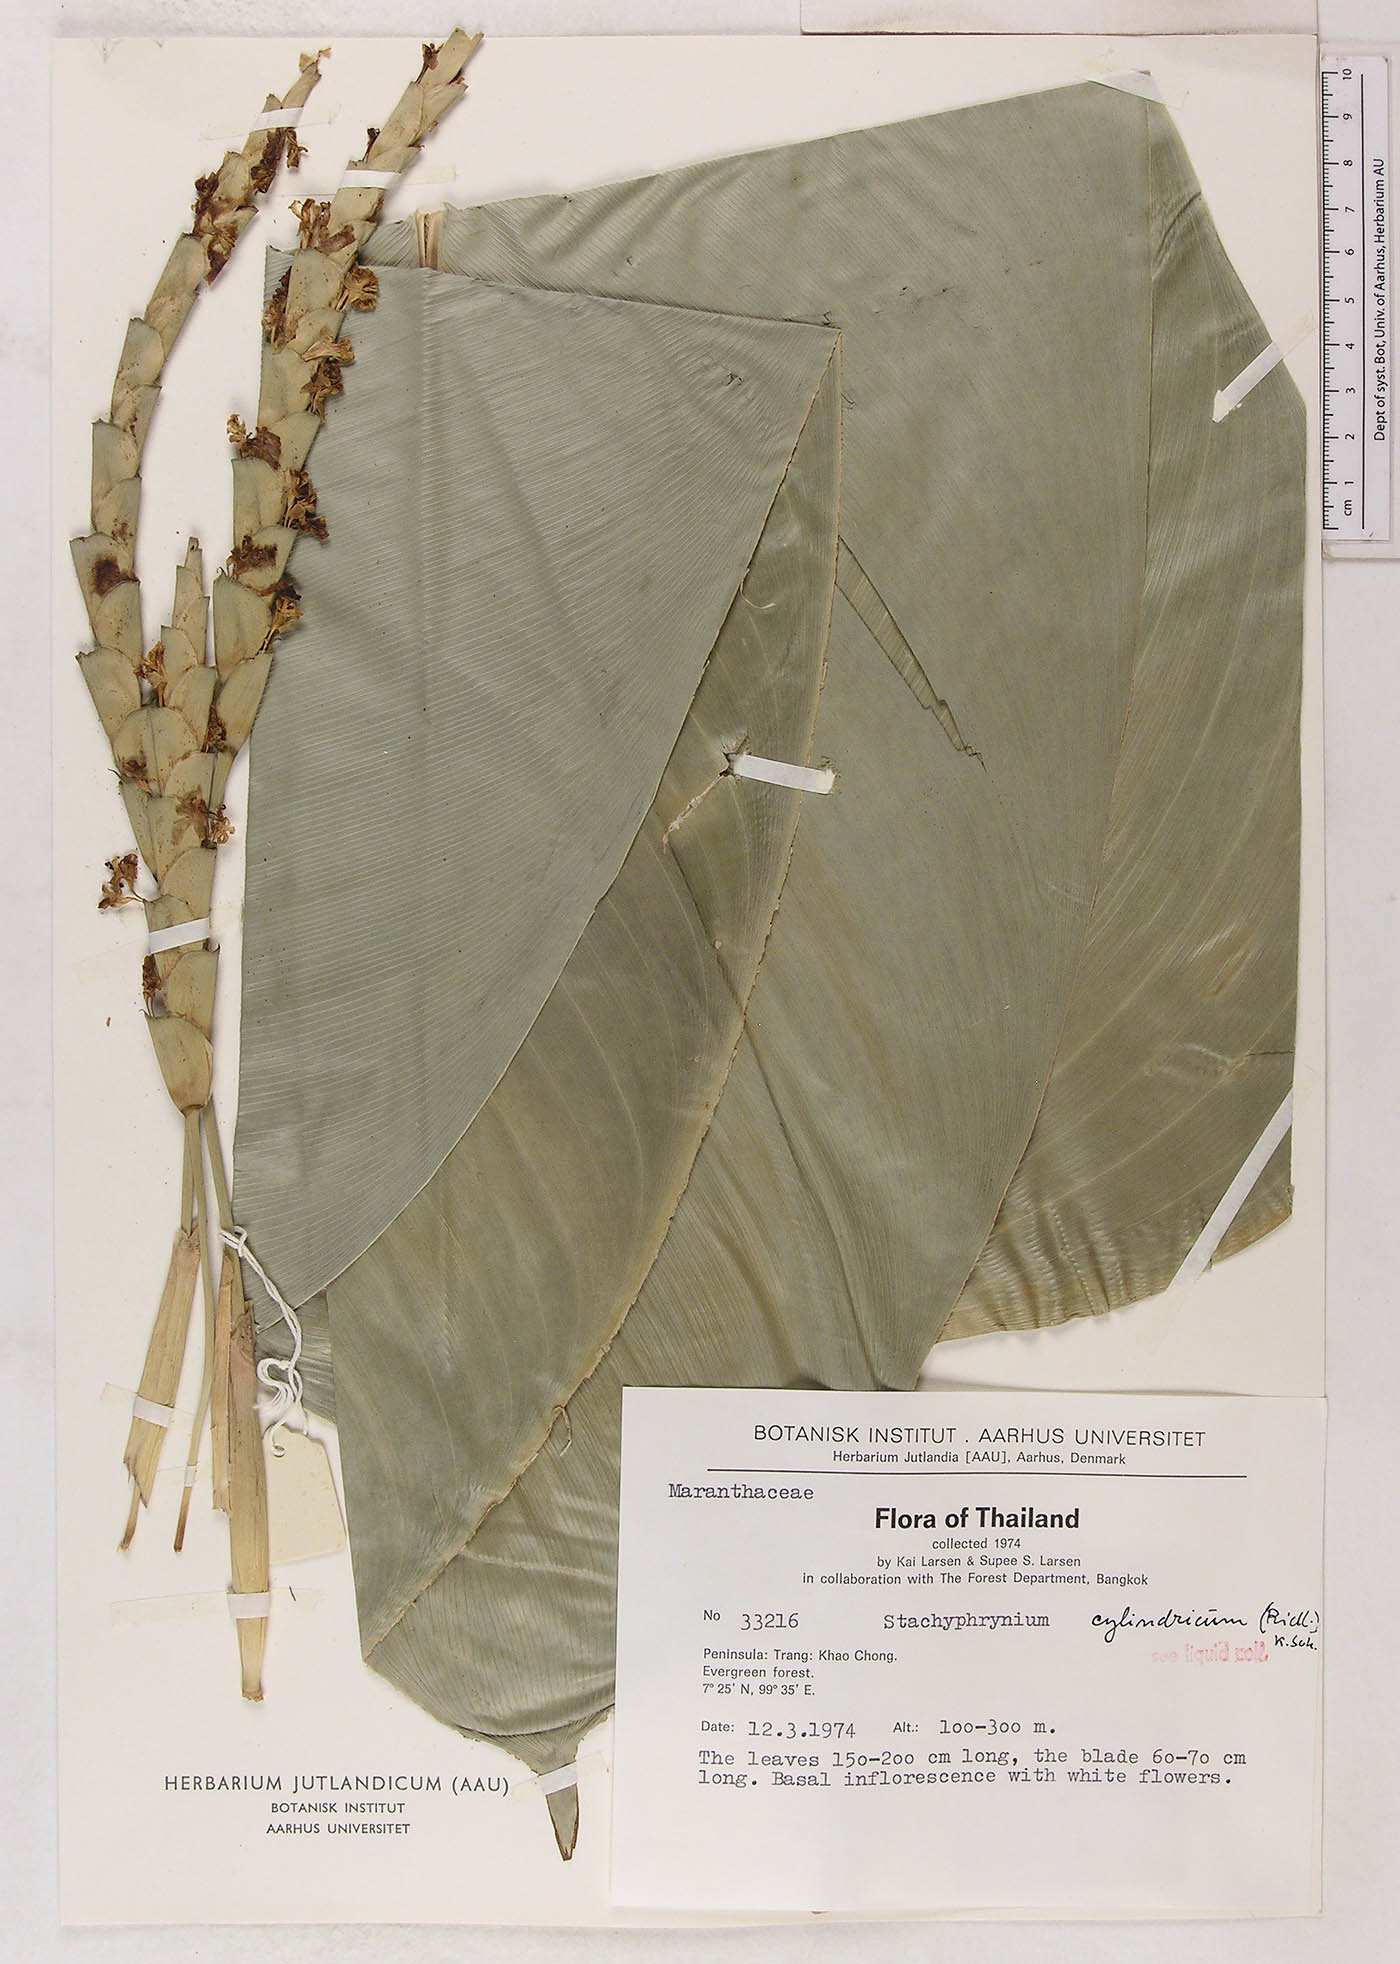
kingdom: Plantae
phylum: Tracheophyta
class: Liliopsida
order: Zingiberales
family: Marantaceae
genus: Stachyphrynium
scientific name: Stachyphrynium latifolium
